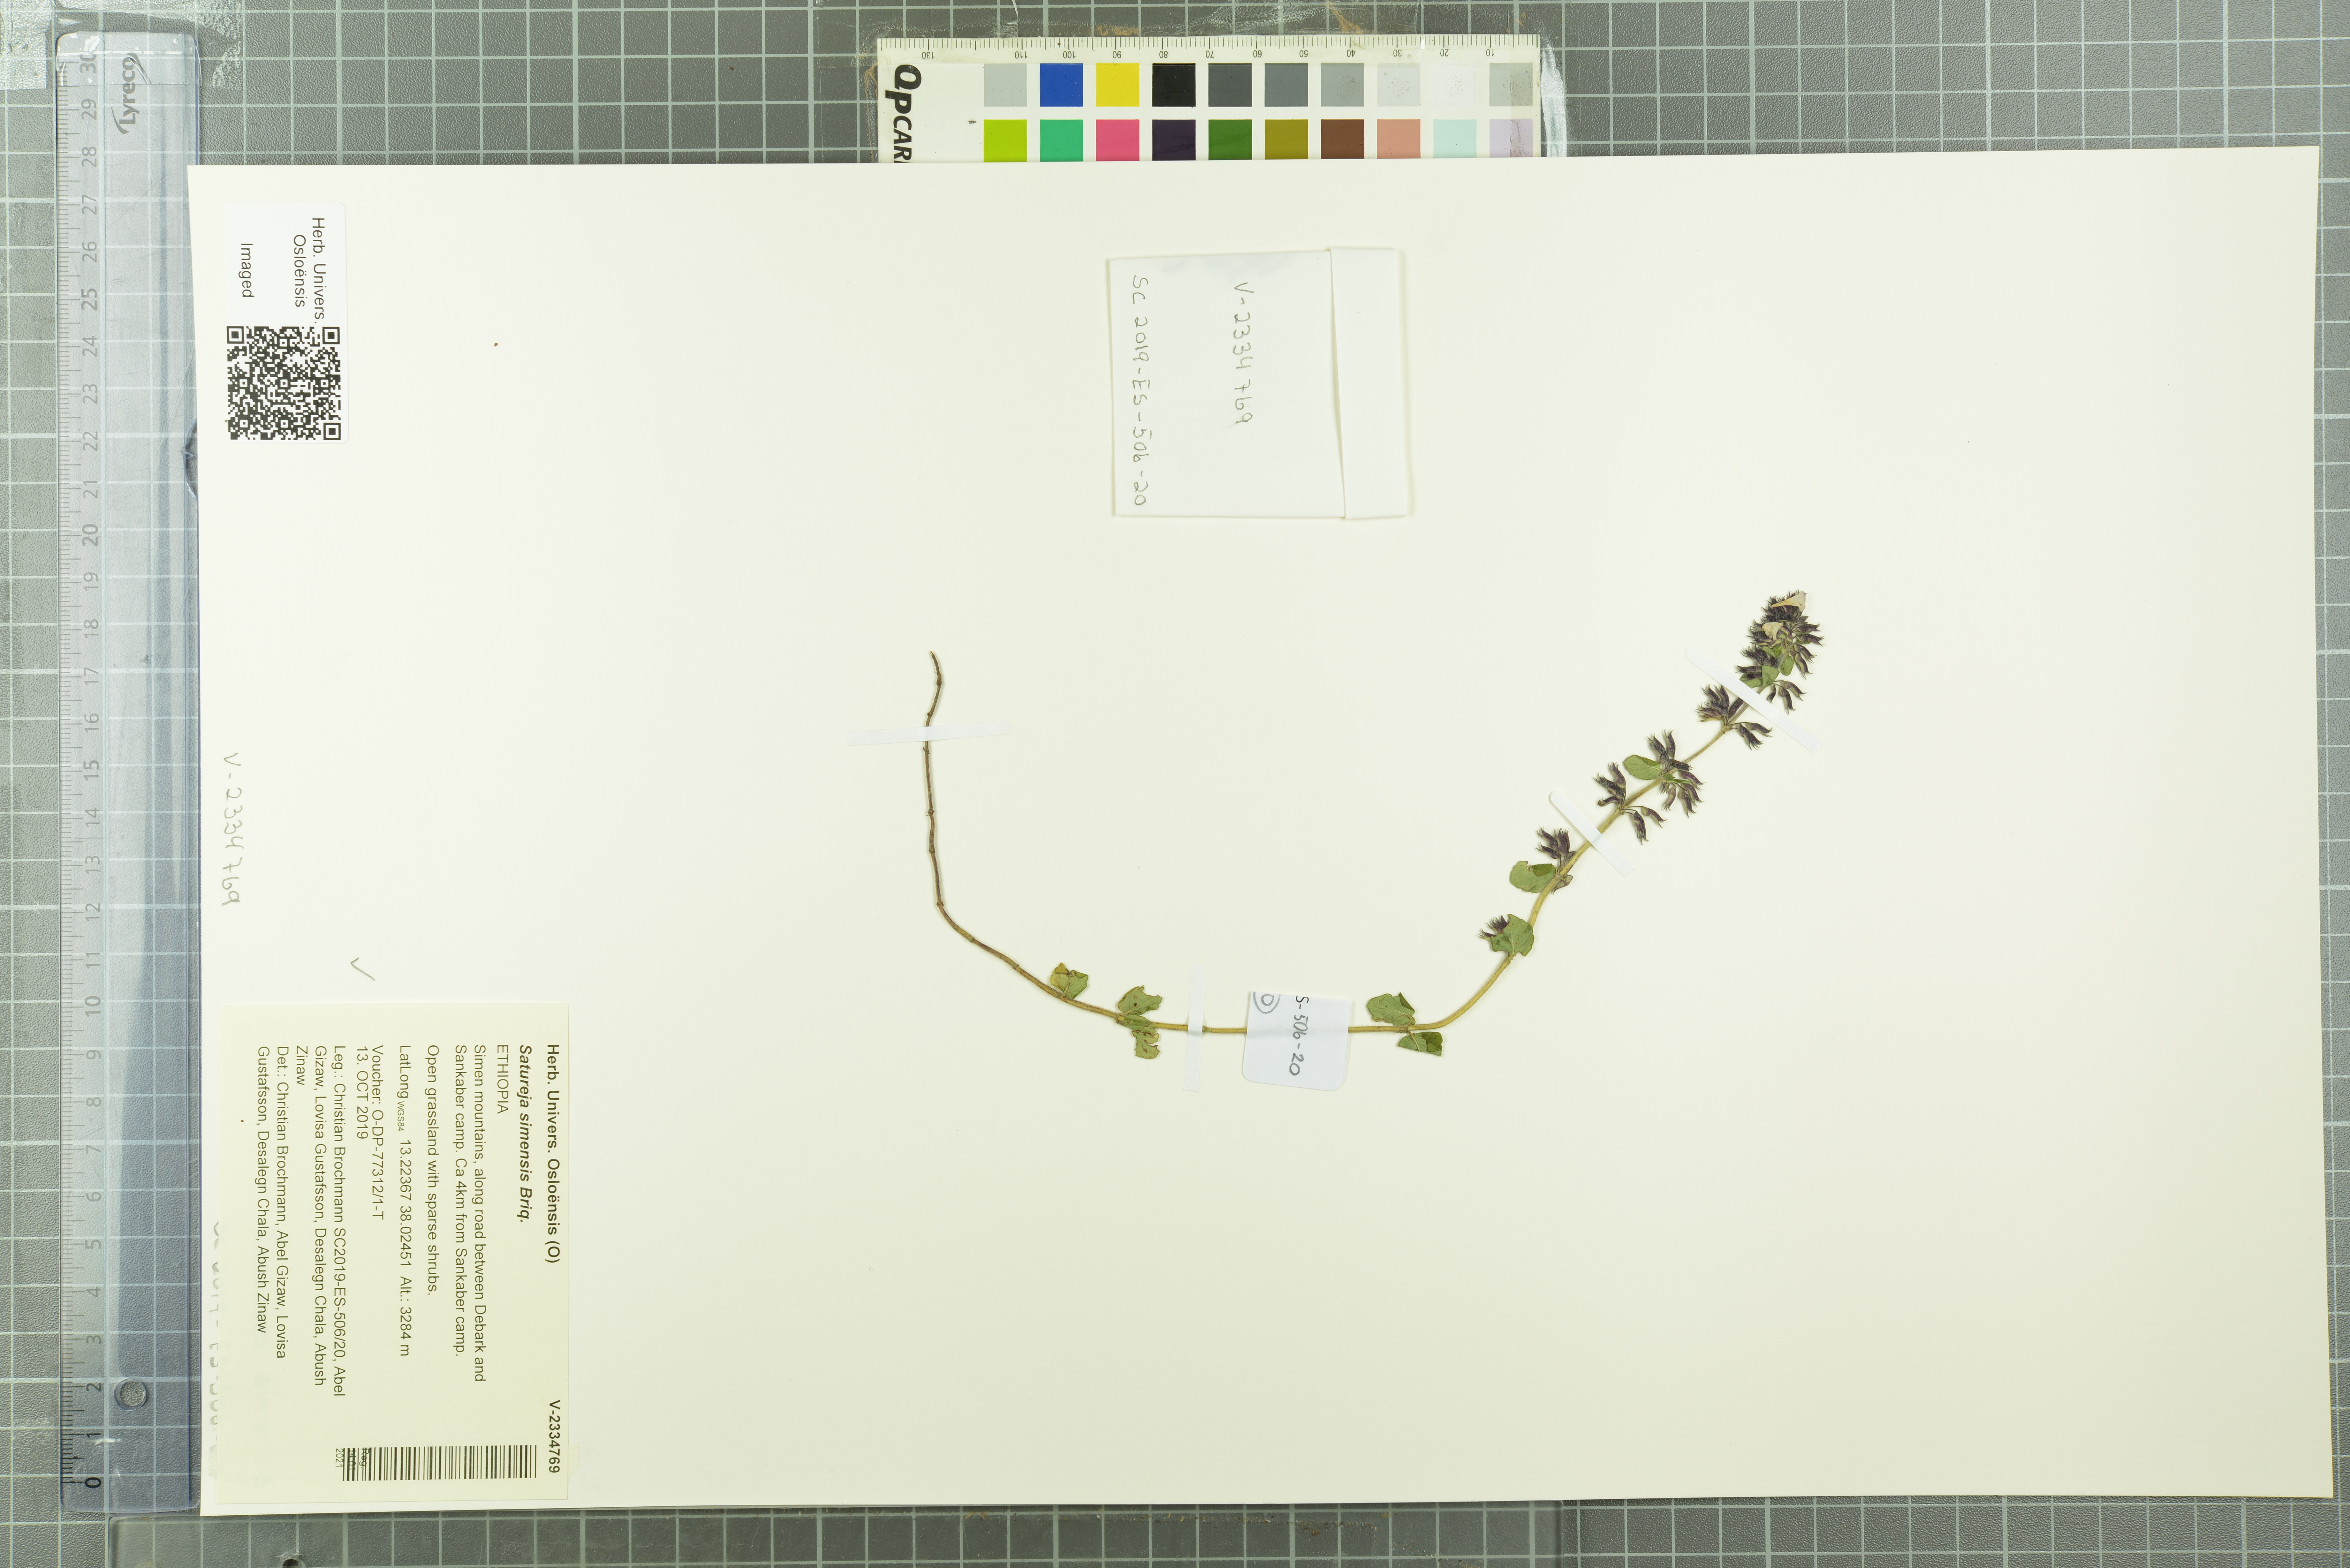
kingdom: Plantae
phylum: Tracheophyta
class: Magnoliopsida
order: Lamiales
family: Lamiaceae
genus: Clinopodium
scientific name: Clinopodium simense
